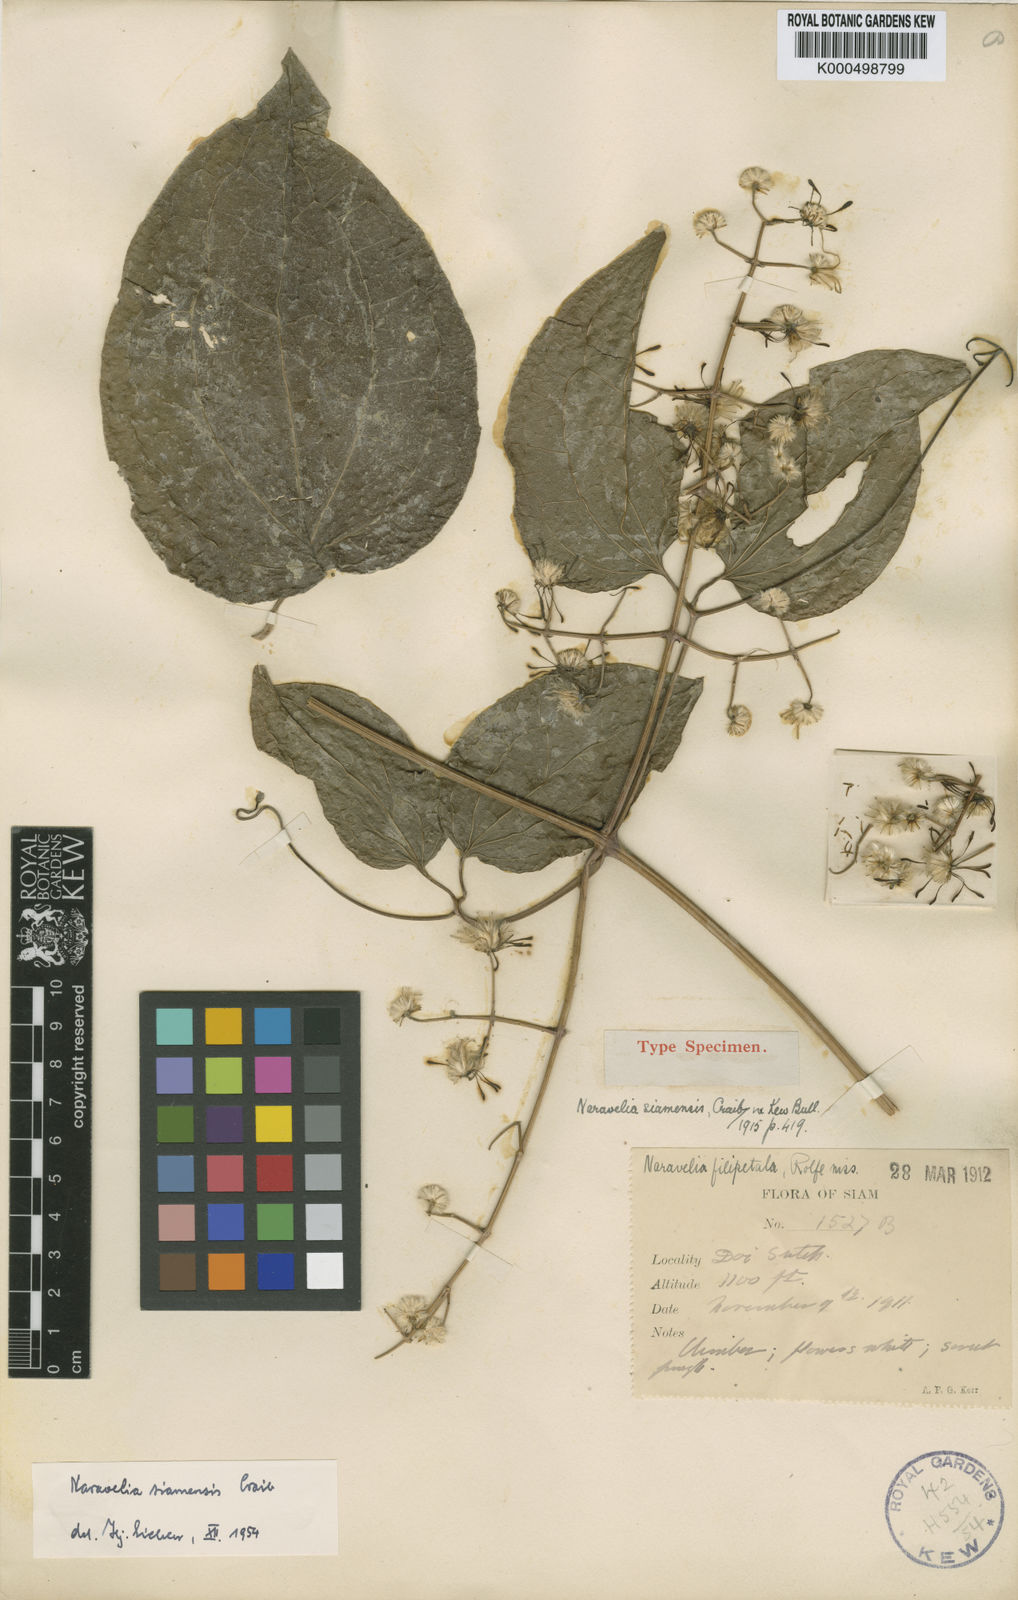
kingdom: Plantae
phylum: Tracheophyta
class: Magnoliopsida
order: Ranunculales
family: Ranunculaceae
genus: Clematis
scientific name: Clematis aureolata
